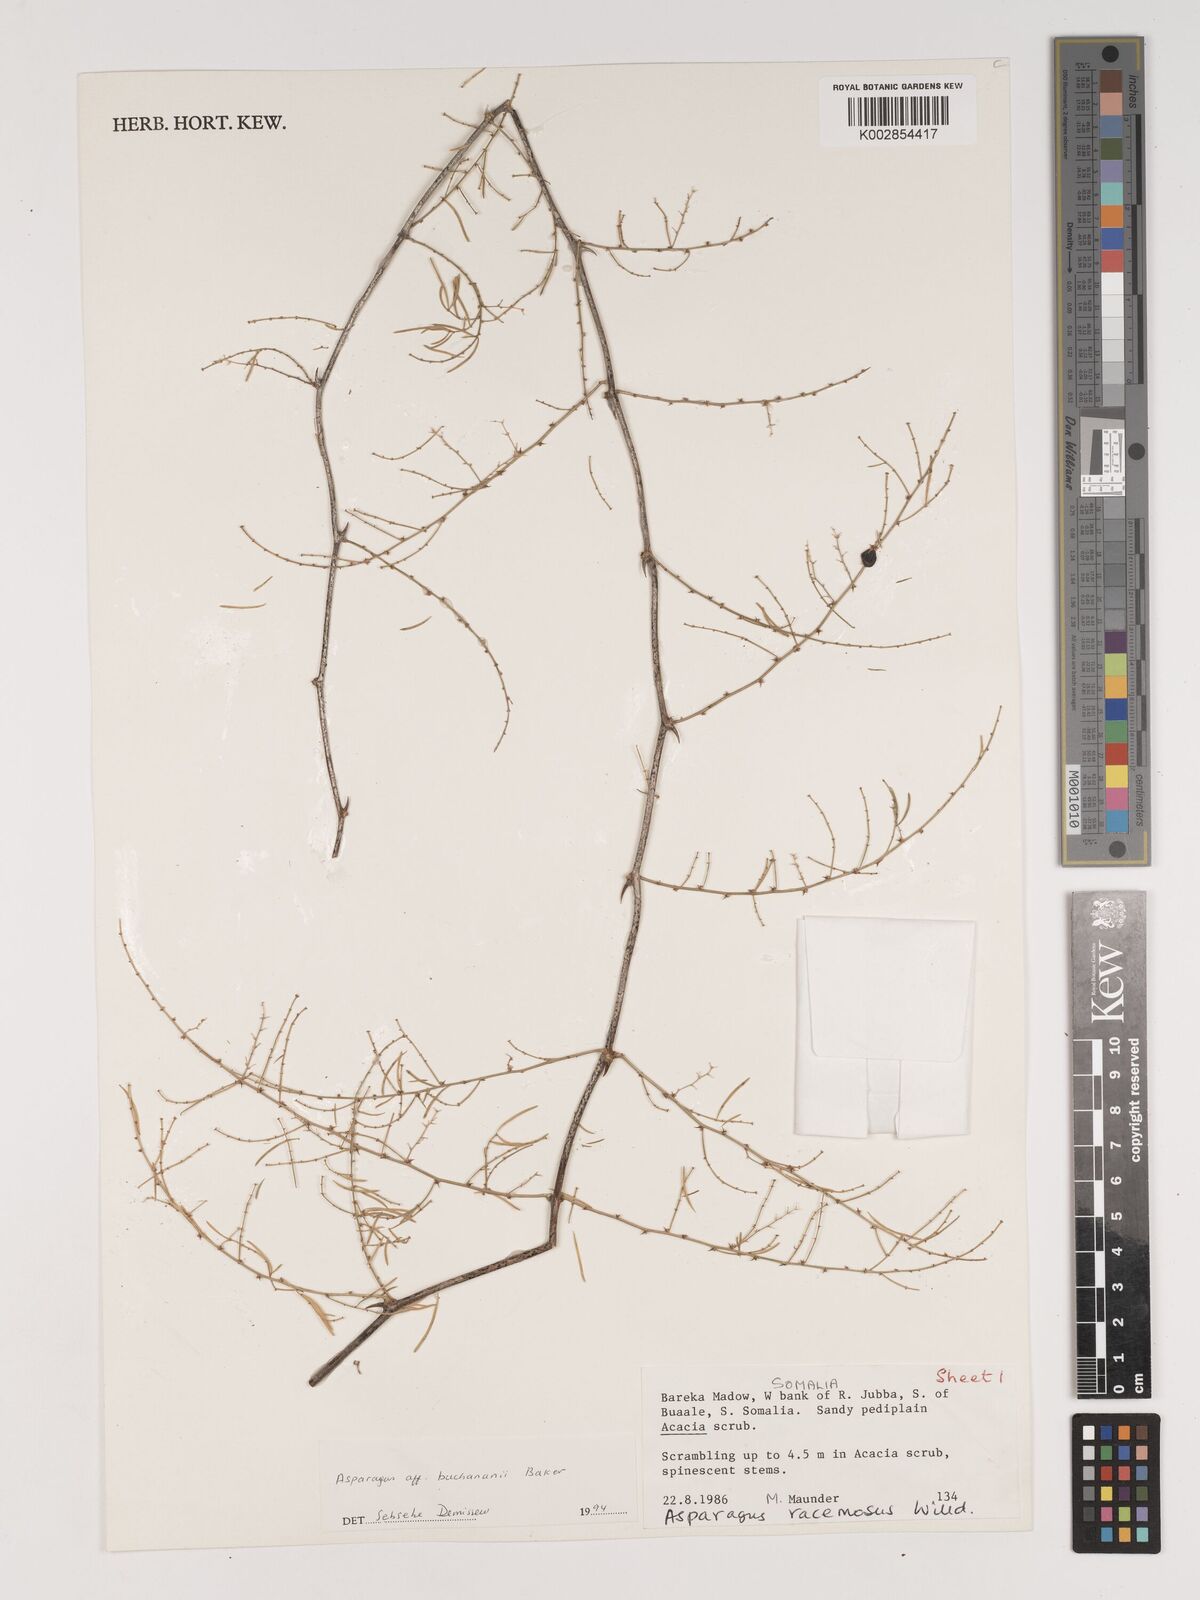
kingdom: Plantae
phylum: Tracheophyta
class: Liliopsida
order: Asparagales
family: Asparagaceae
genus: Asparagus
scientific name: Asparagus buchananii
